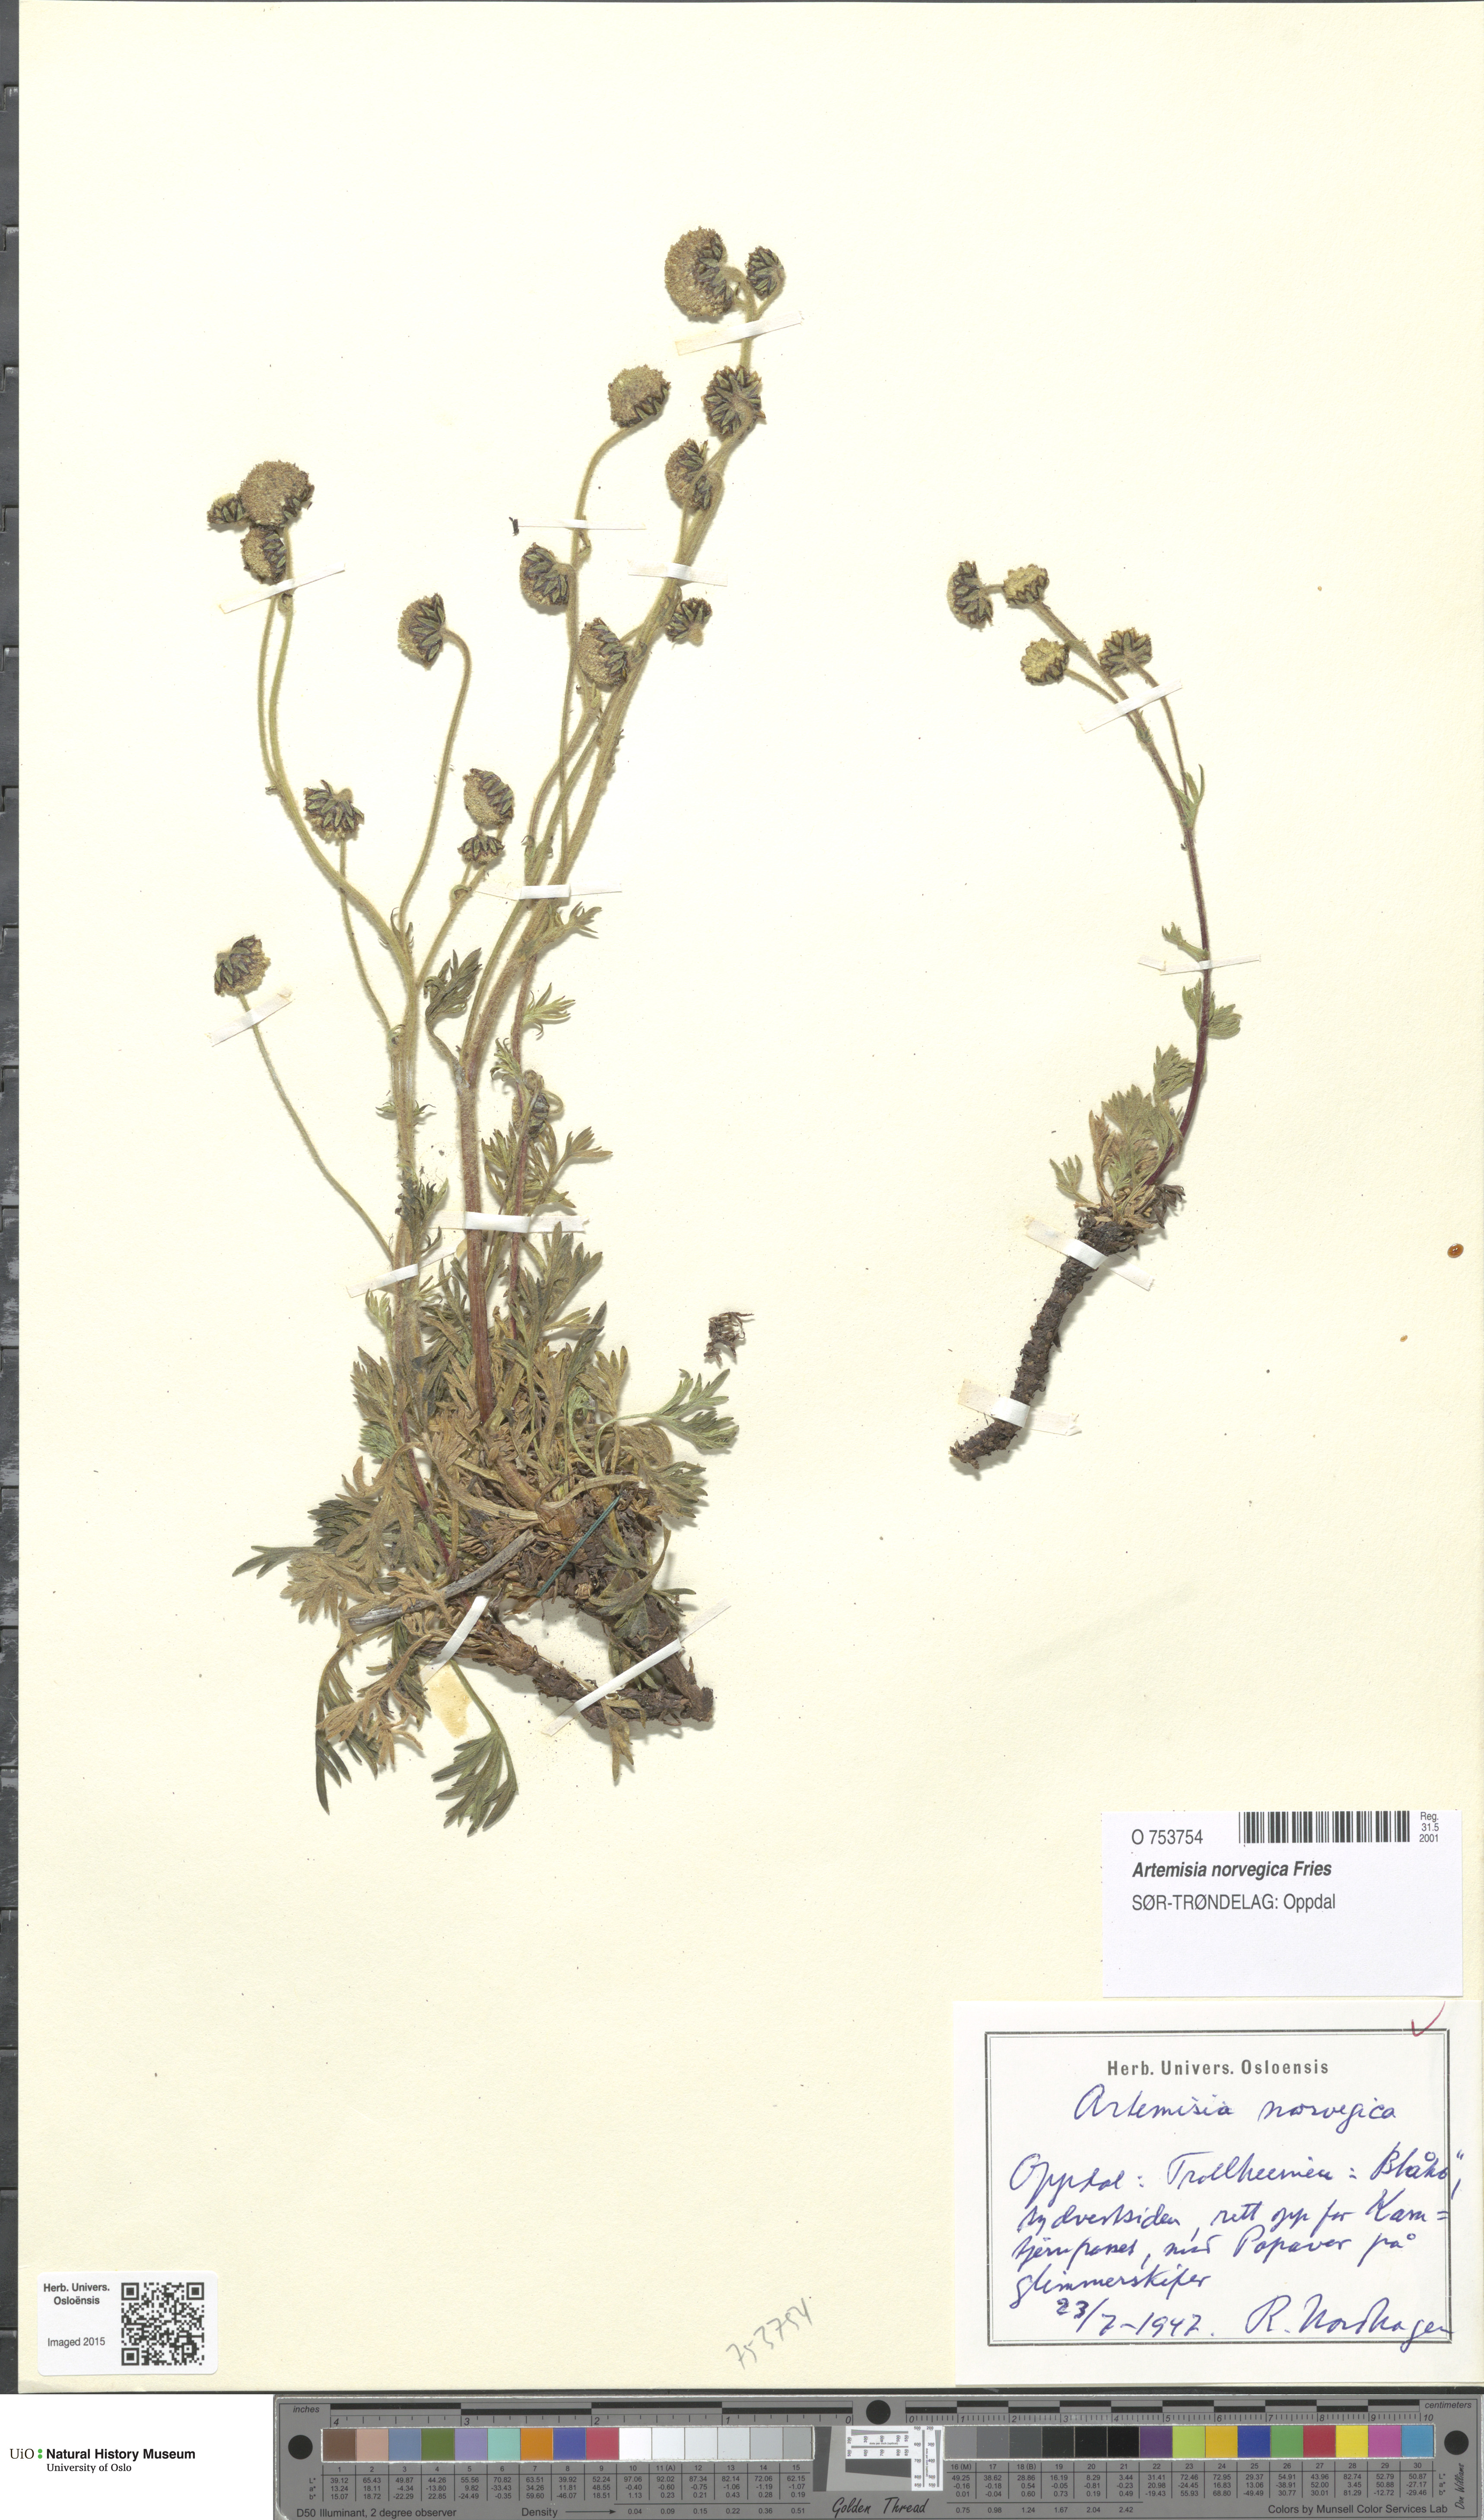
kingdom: Plantae
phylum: Tracheophyta
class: Magnoliopsida
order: Asterales
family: Asteraceae
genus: Artemisia
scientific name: Artemisia norvegica
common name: Norwegian mugwort
